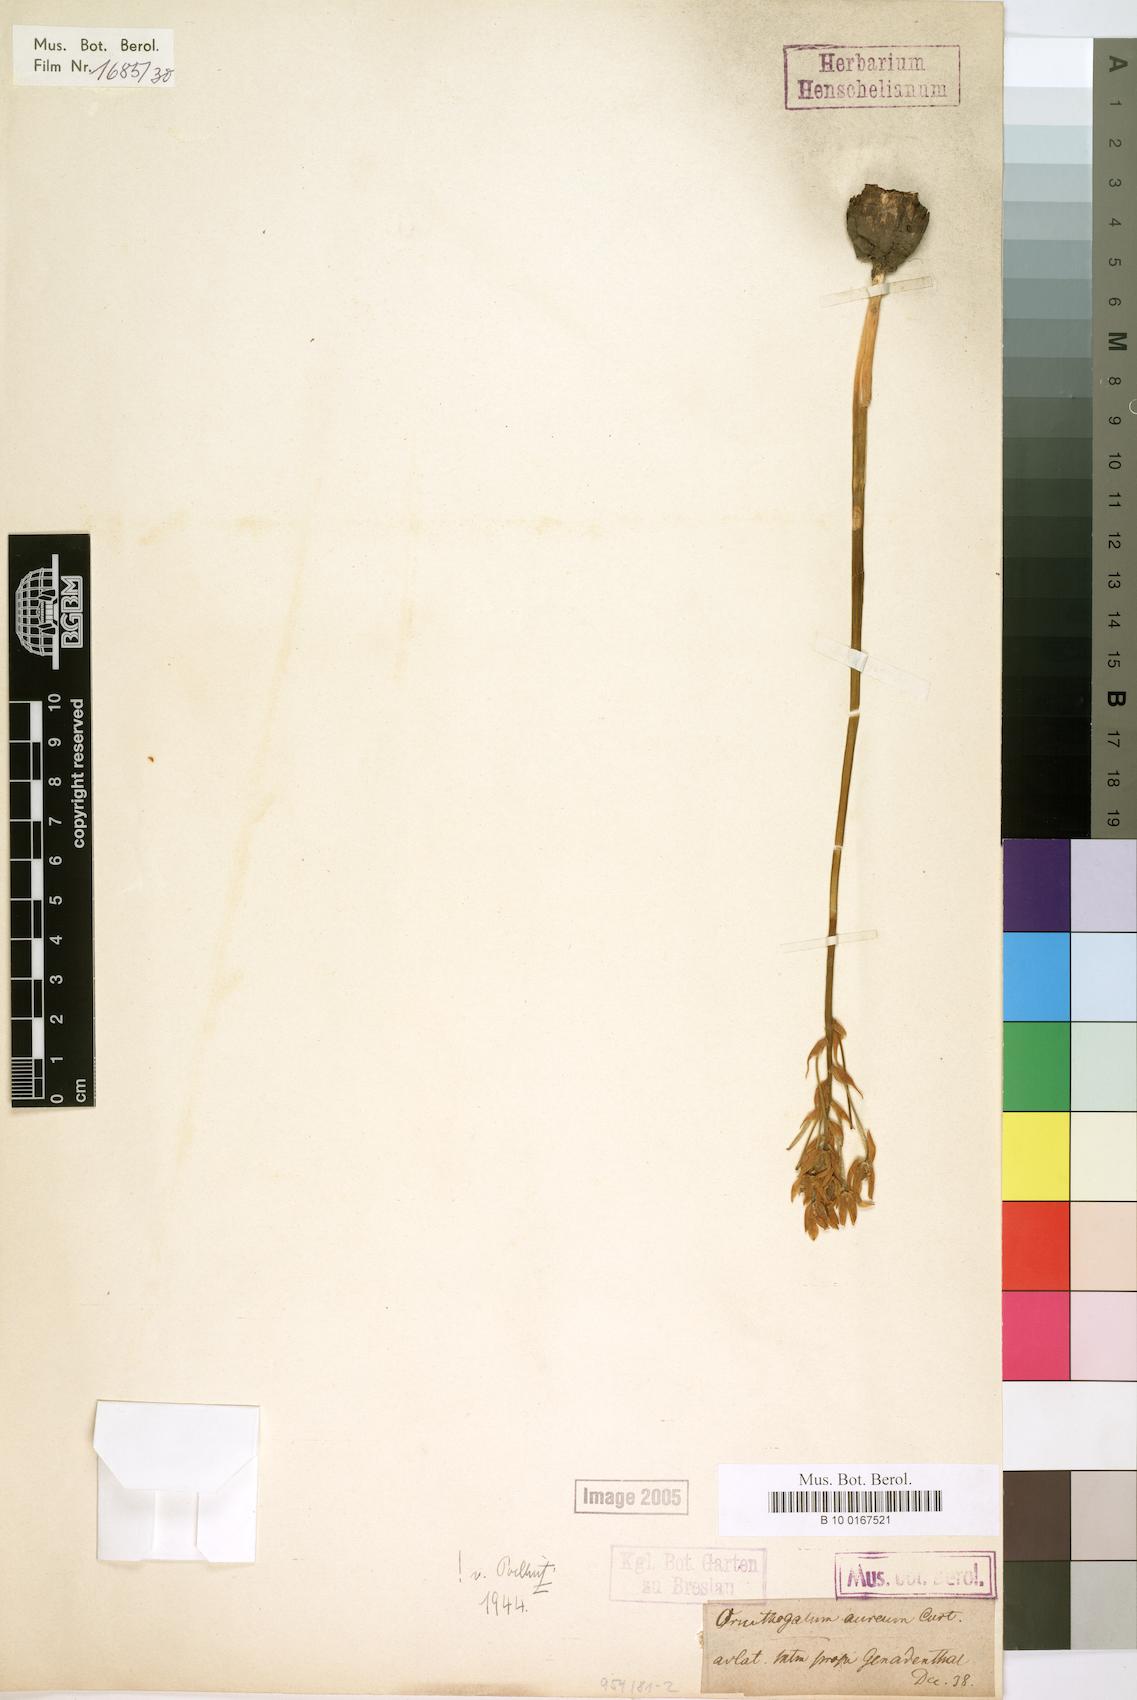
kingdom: Plantae
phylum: Tracheophyta
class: Liliopsida
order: Asparagales
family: Asparagaceae
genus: Ornithogalum
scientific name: Ornithogalum dubium
